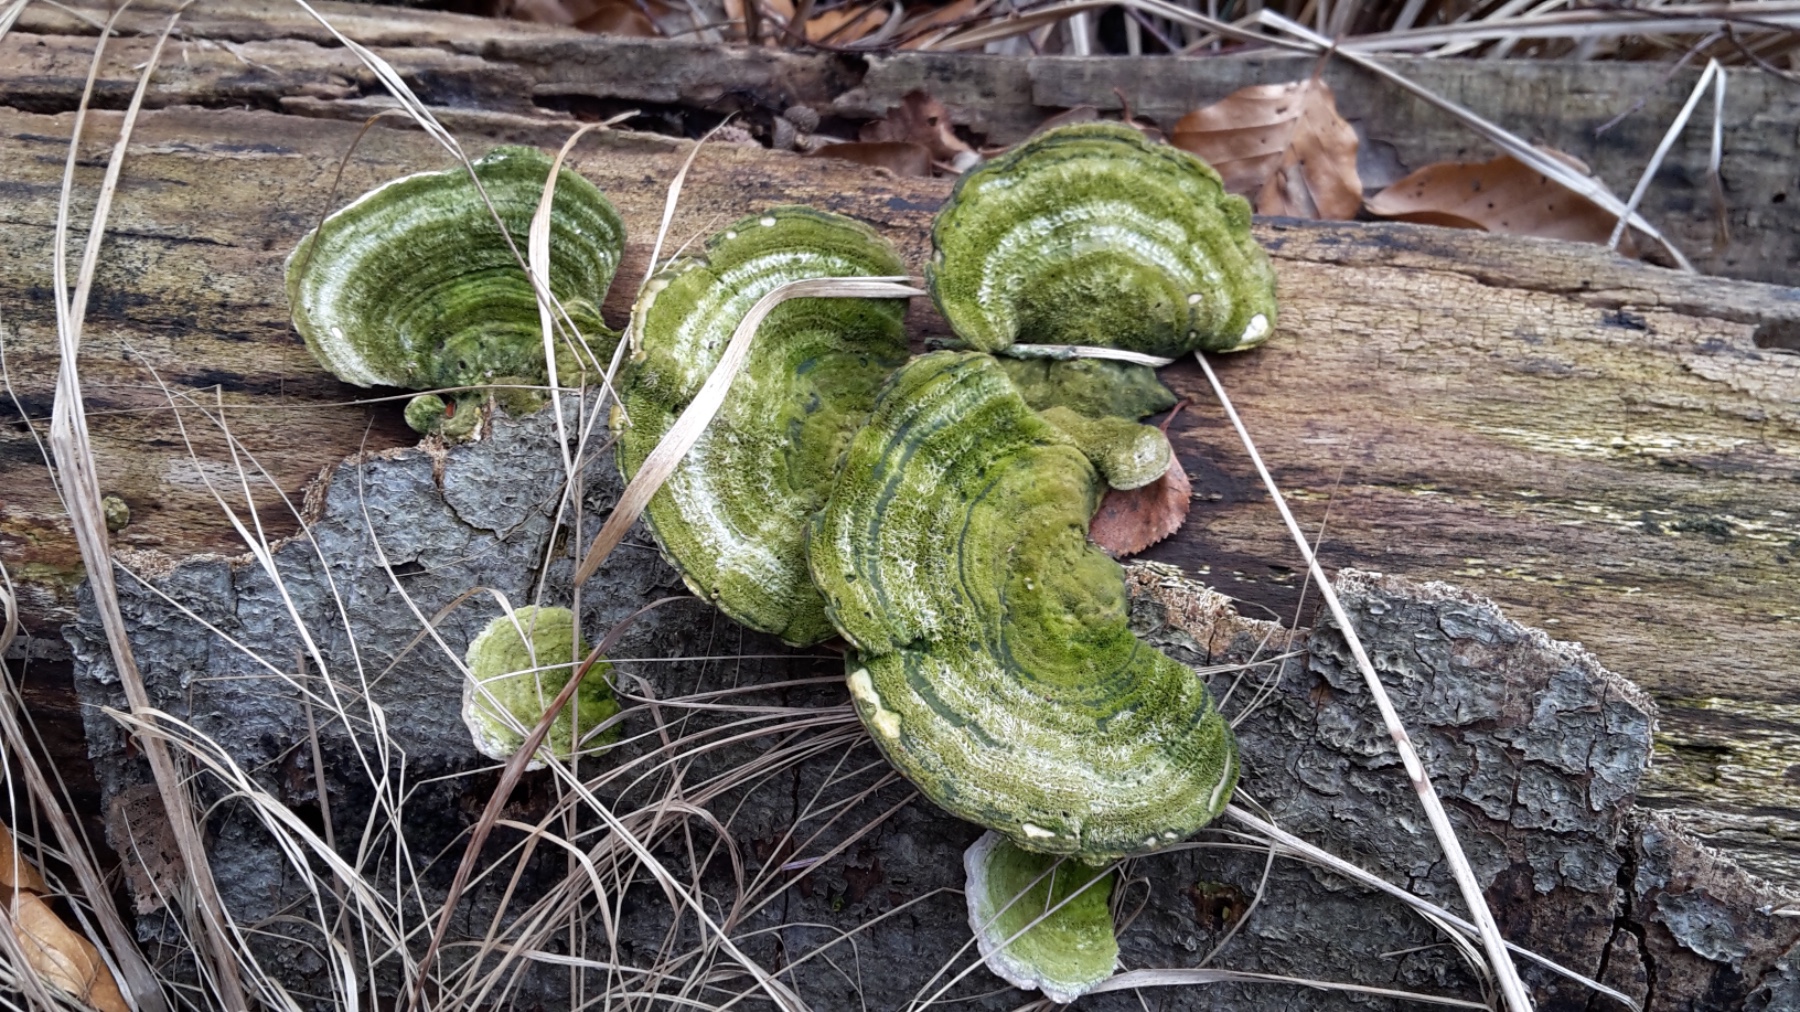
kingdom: Fungi
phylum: Basidiomycota
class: Agaricomycetes
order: Polyporales
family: Polyporaceae
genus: Trametes
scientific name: Trametes hirsuta
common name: håret læderporesvamp
